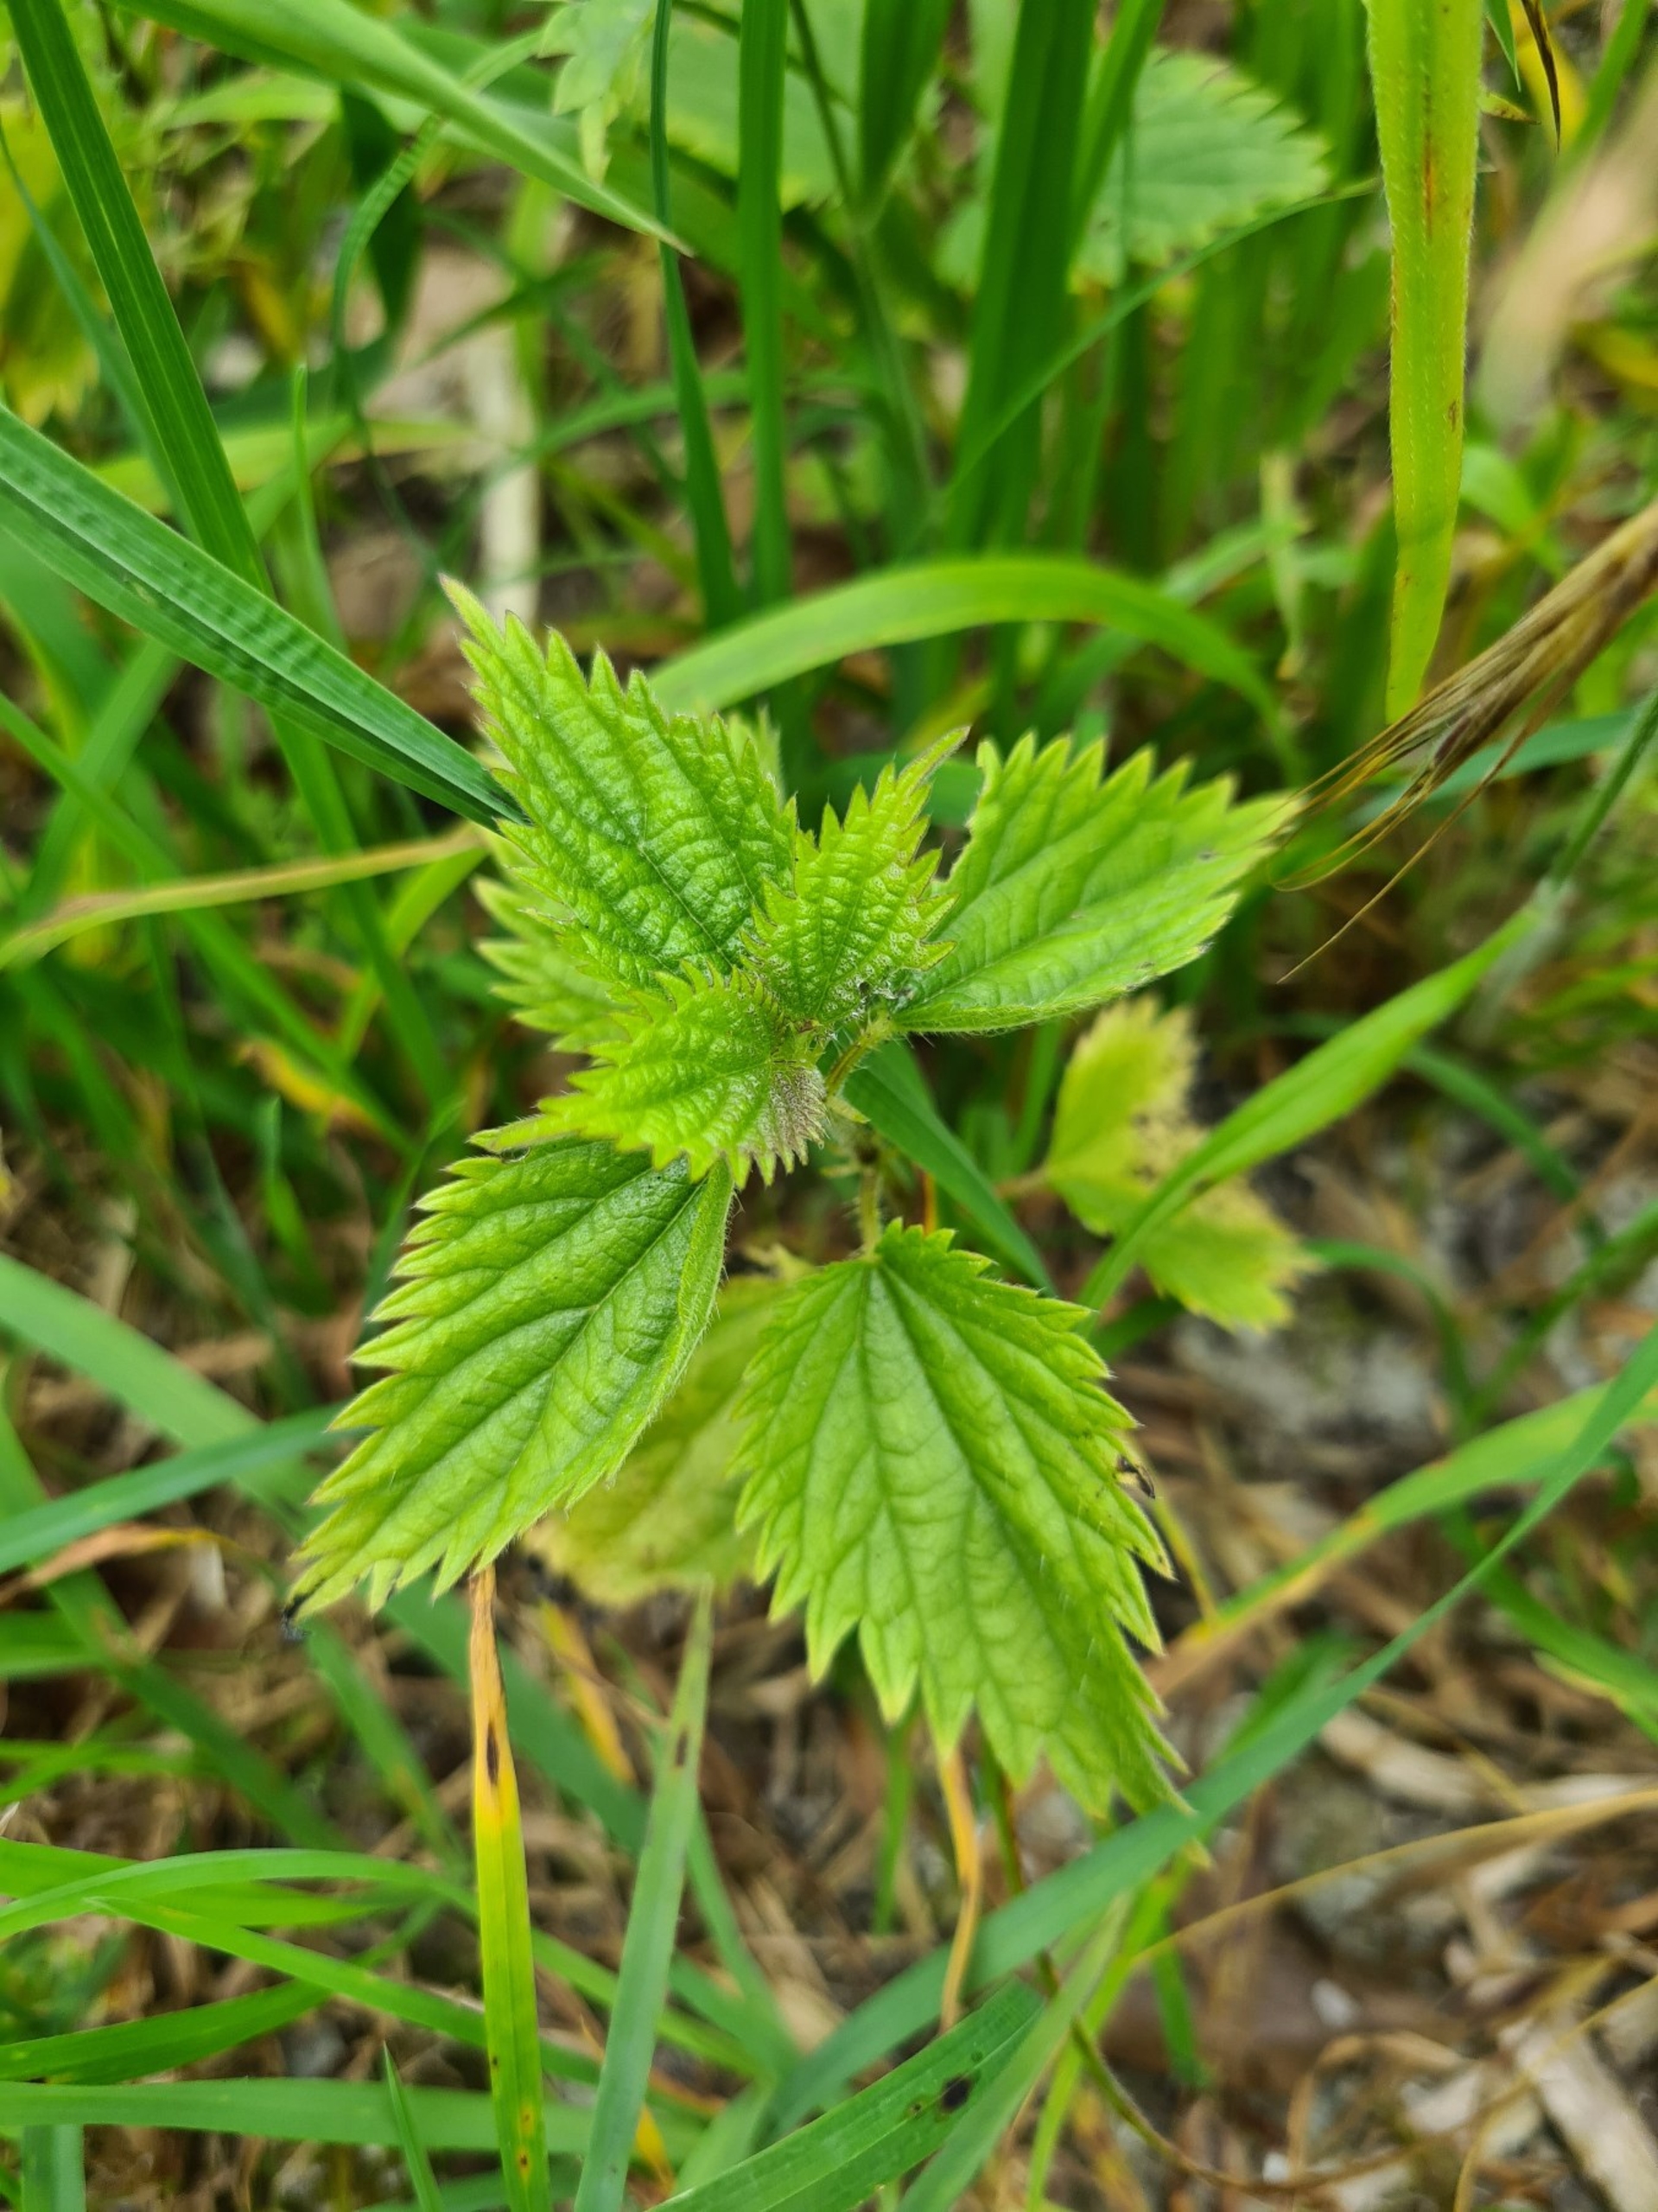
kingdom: Plantae
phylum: Tracheophyta
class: Magnoliopsida
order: Rosales
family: Urticaceae
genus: Urtica
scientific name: Urtica dioica
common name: Stor nælde
